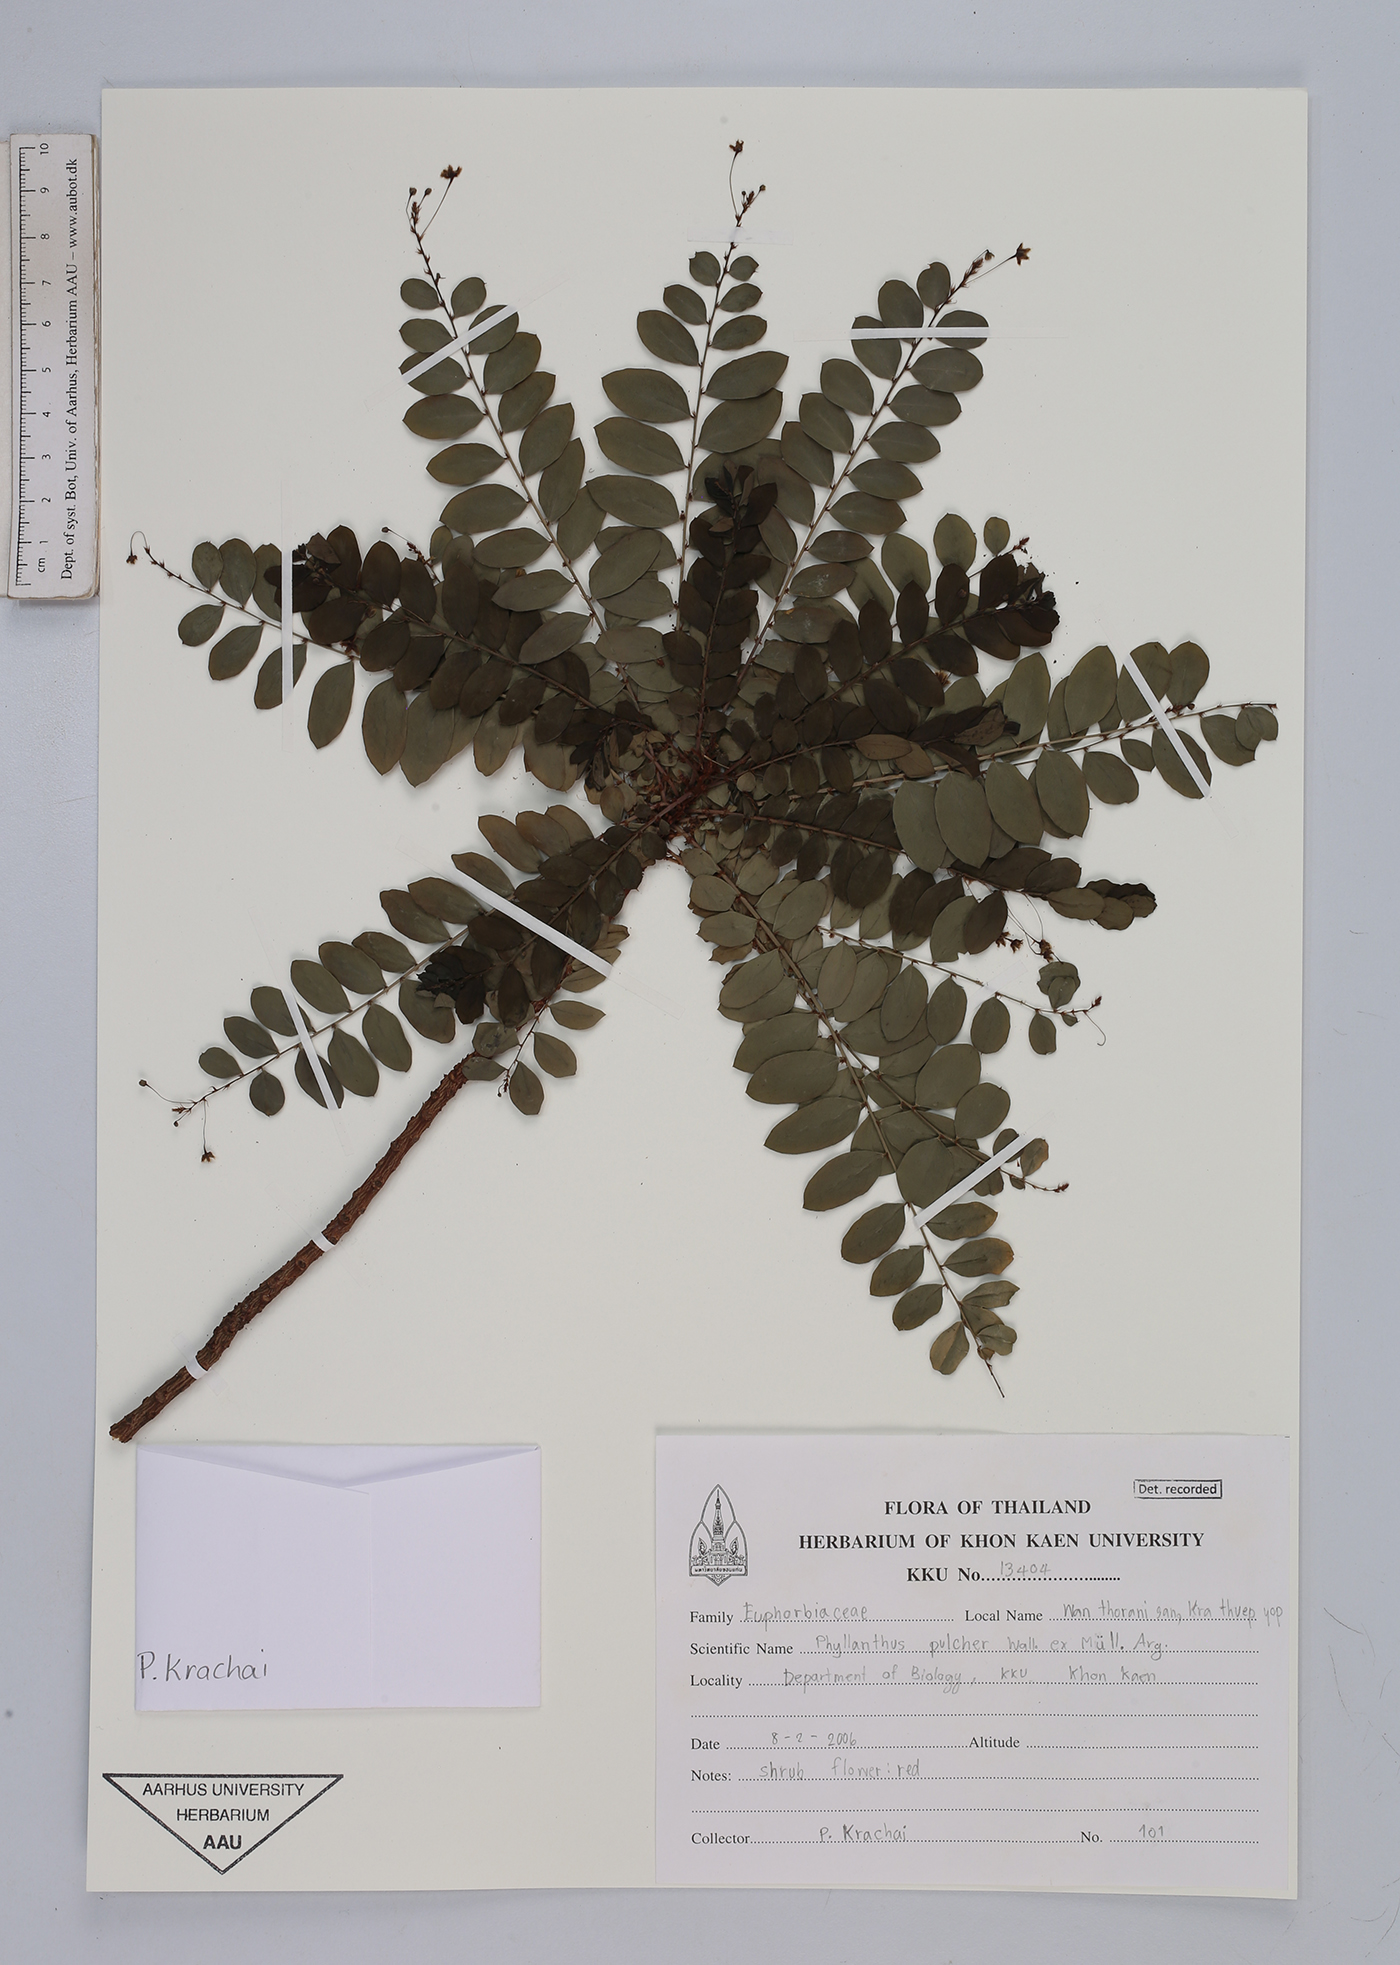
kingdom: Plantae
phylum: Tracheophyta
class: Magnoliopsida
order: Malpighiales
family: Phyllanthaceae
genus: Phyllanthus
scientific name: Phyllanthus pulcher
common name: Dragon-of-the-world
